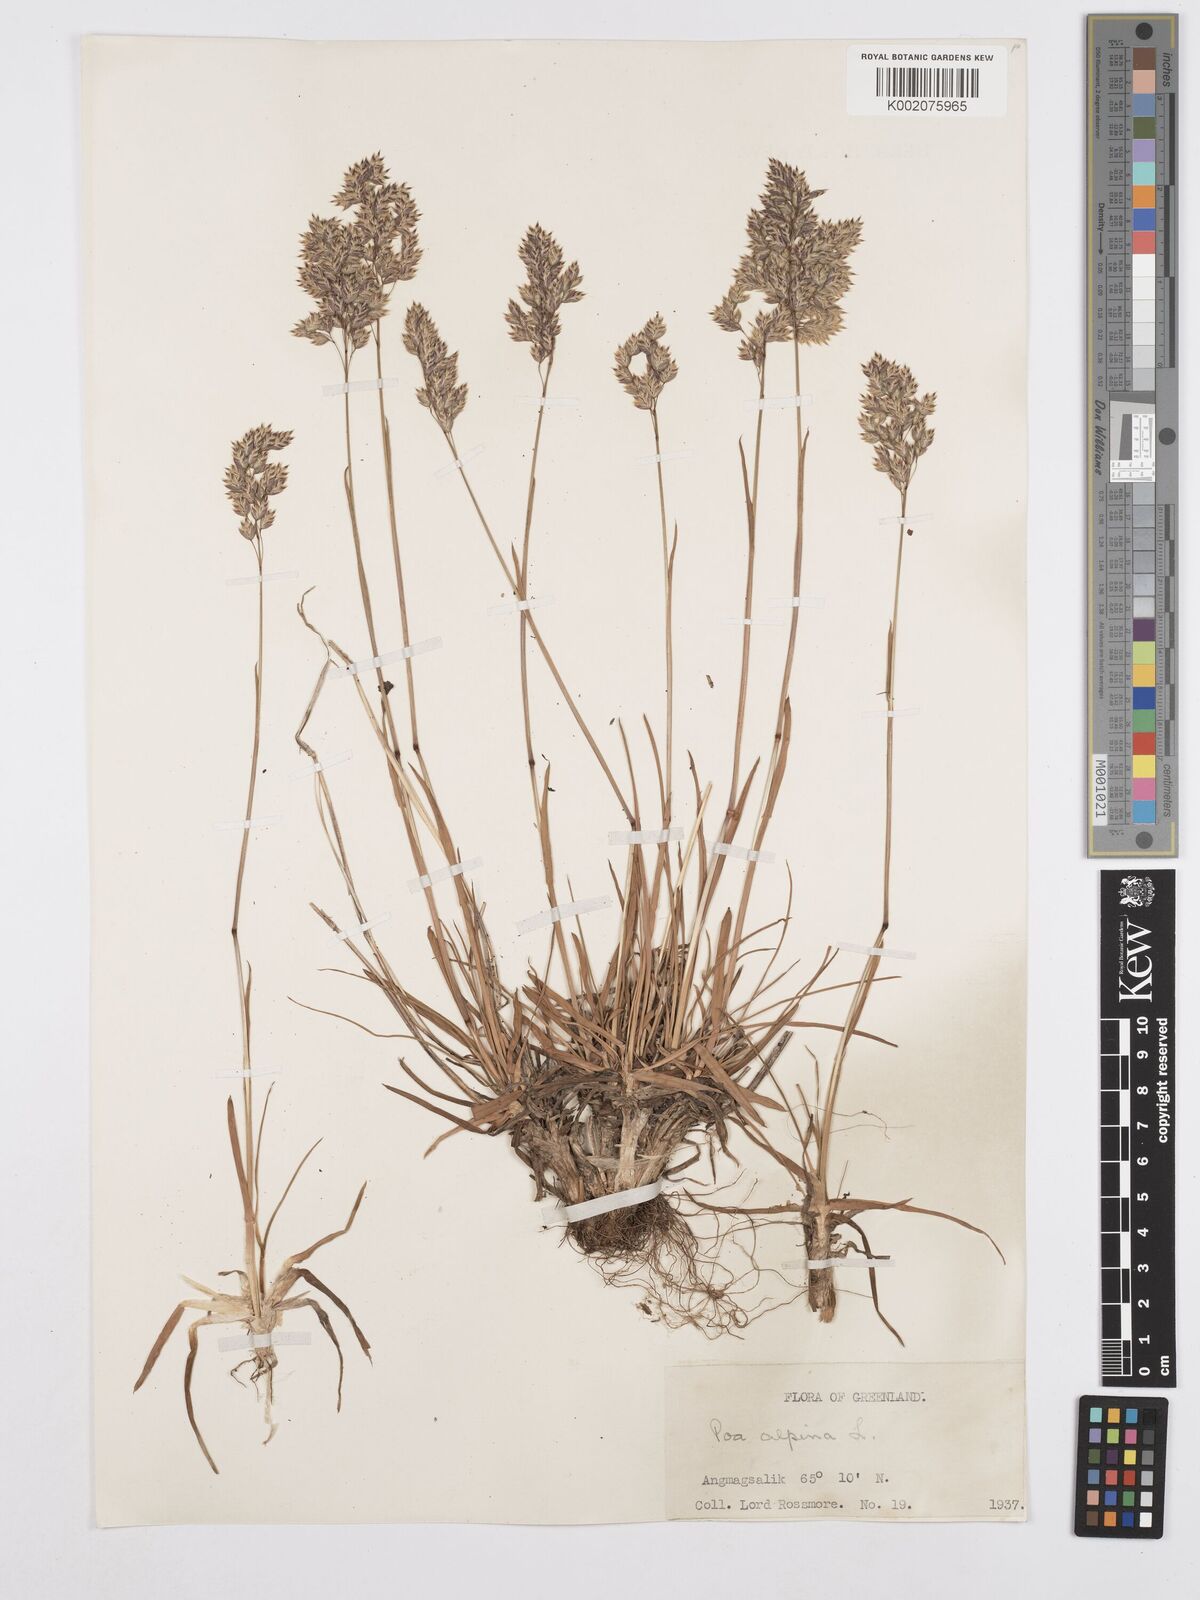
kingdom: Plantae
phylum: Tracheophyta
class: Liliopsida
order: Poales
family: Poaceae
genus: Poa
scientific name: Poa alpina
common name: Alpine bluegrass
